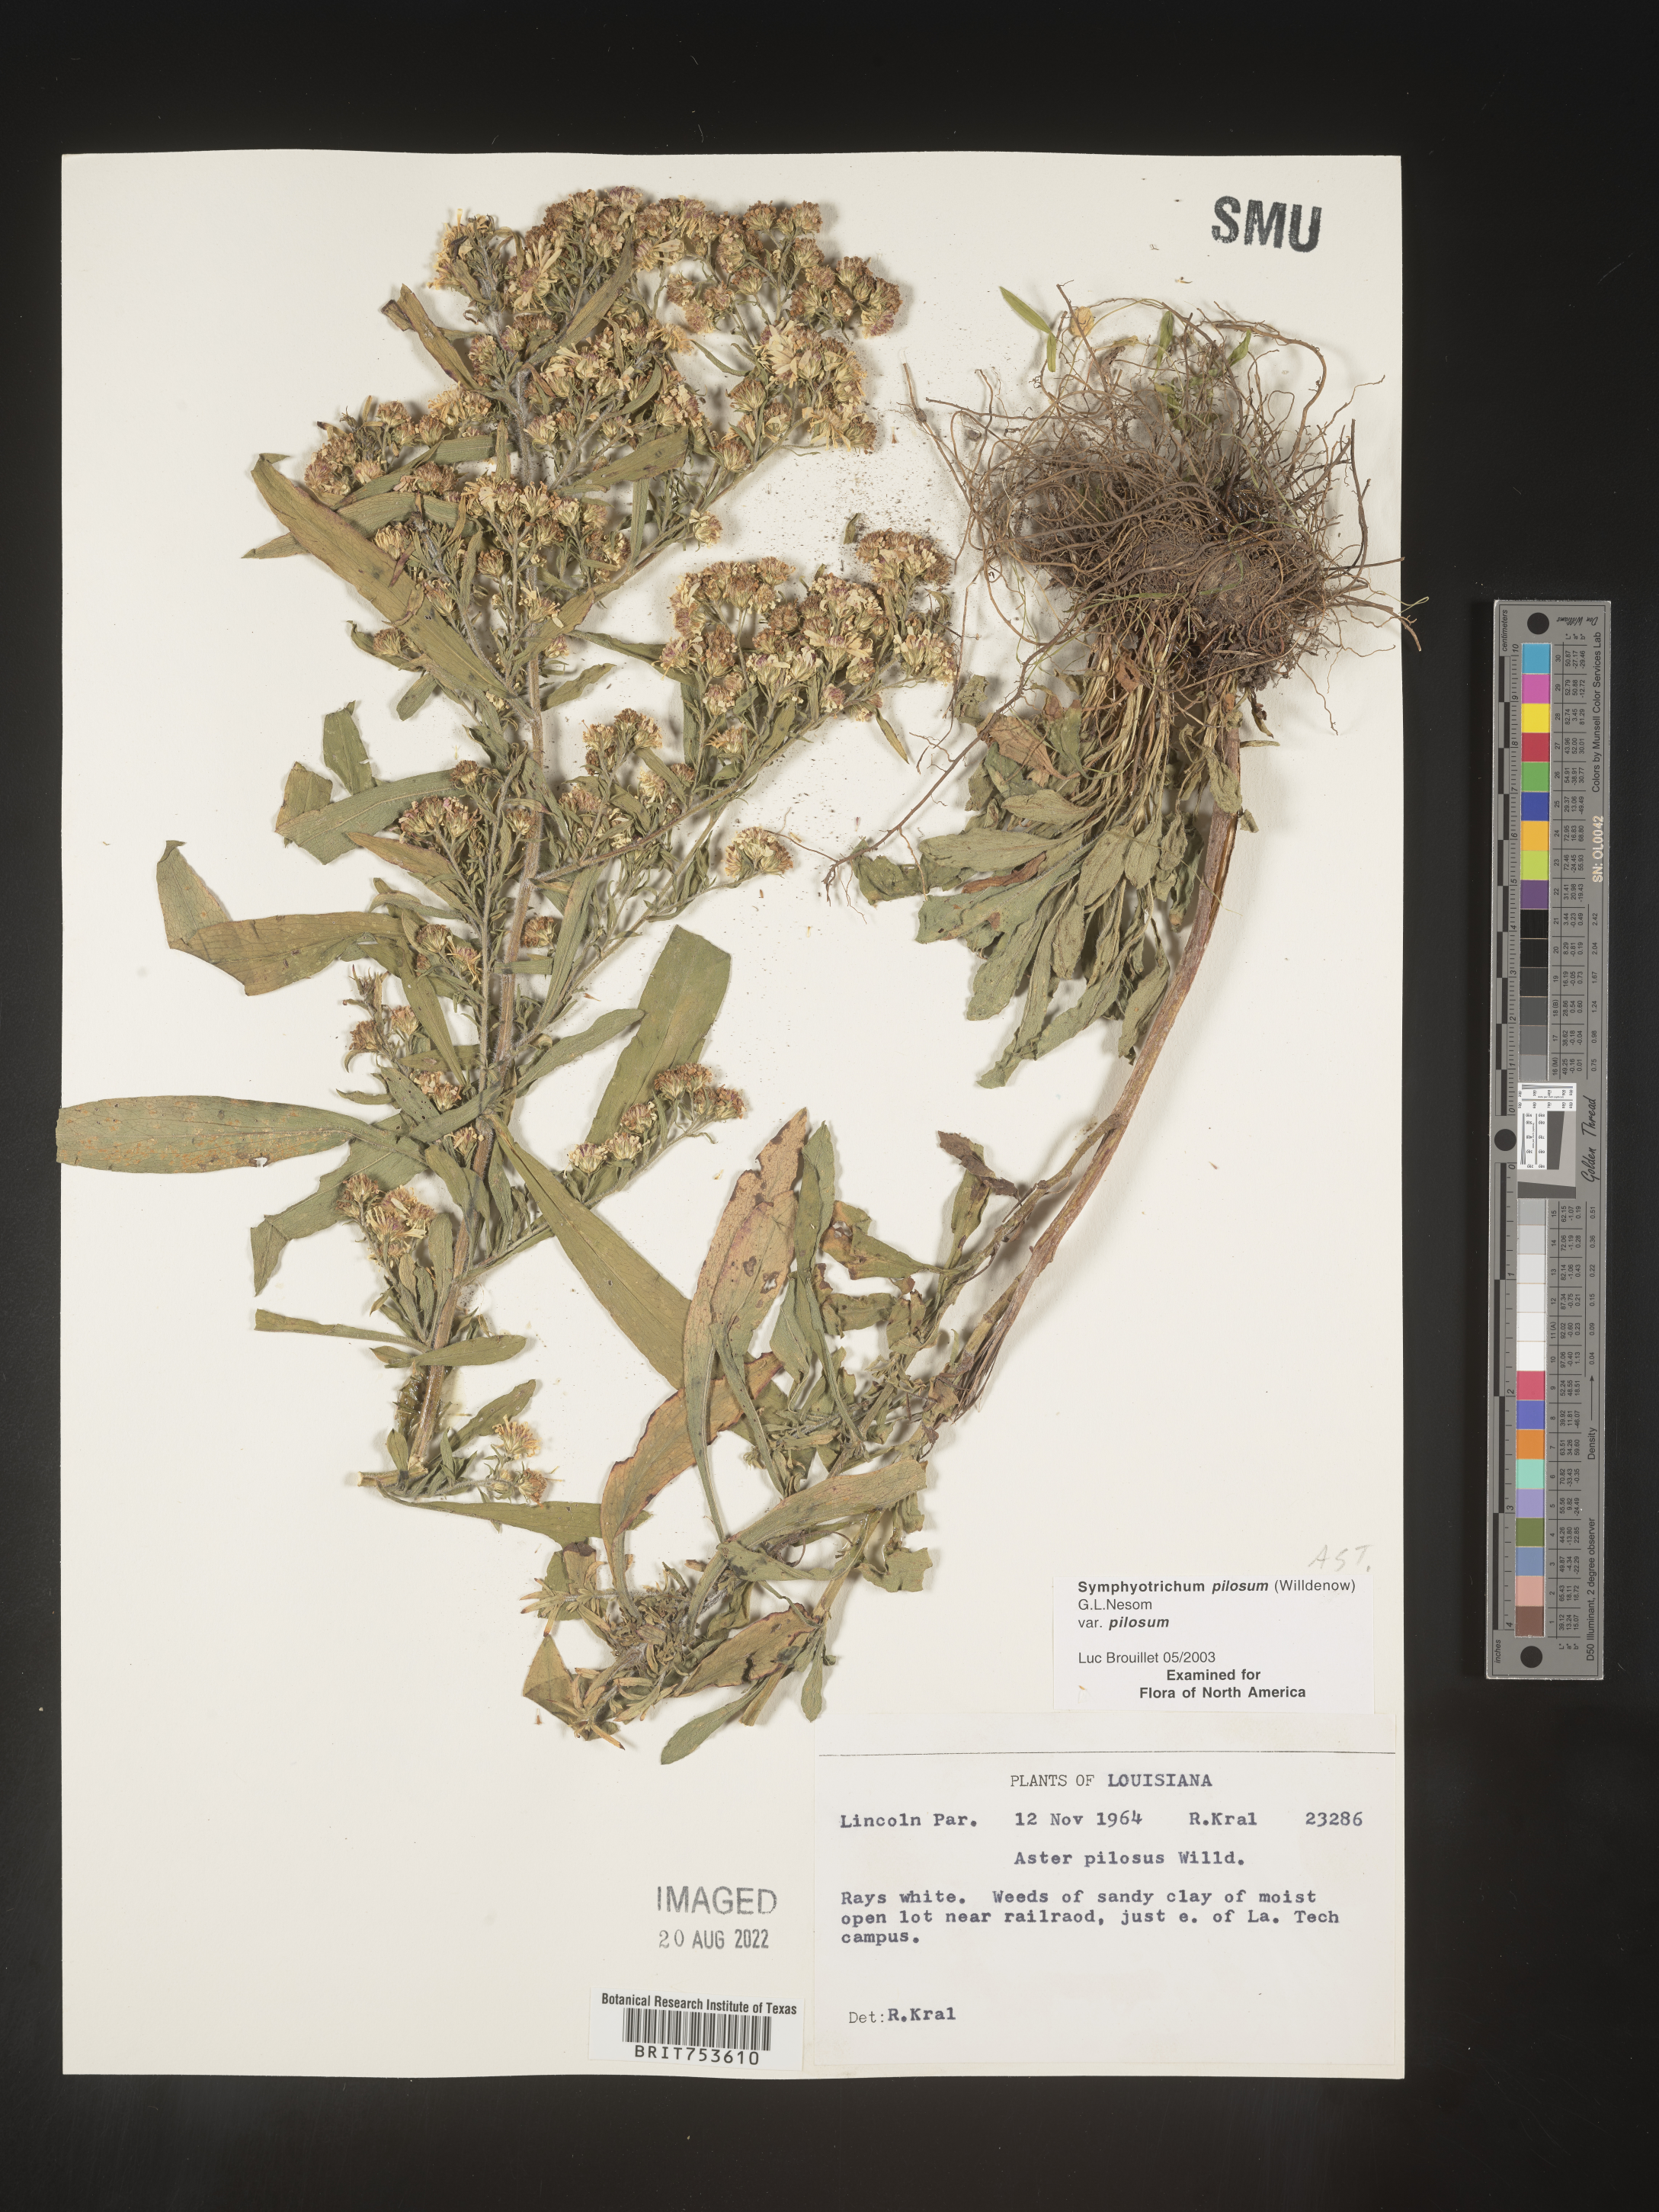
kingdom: Plantae
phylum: Tracheophyta
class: Magnoliopsida
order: Asterales
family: Asteraceae
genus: Symphyotrichum
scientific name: Symphyotrichum pilosum
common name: Awl aster
